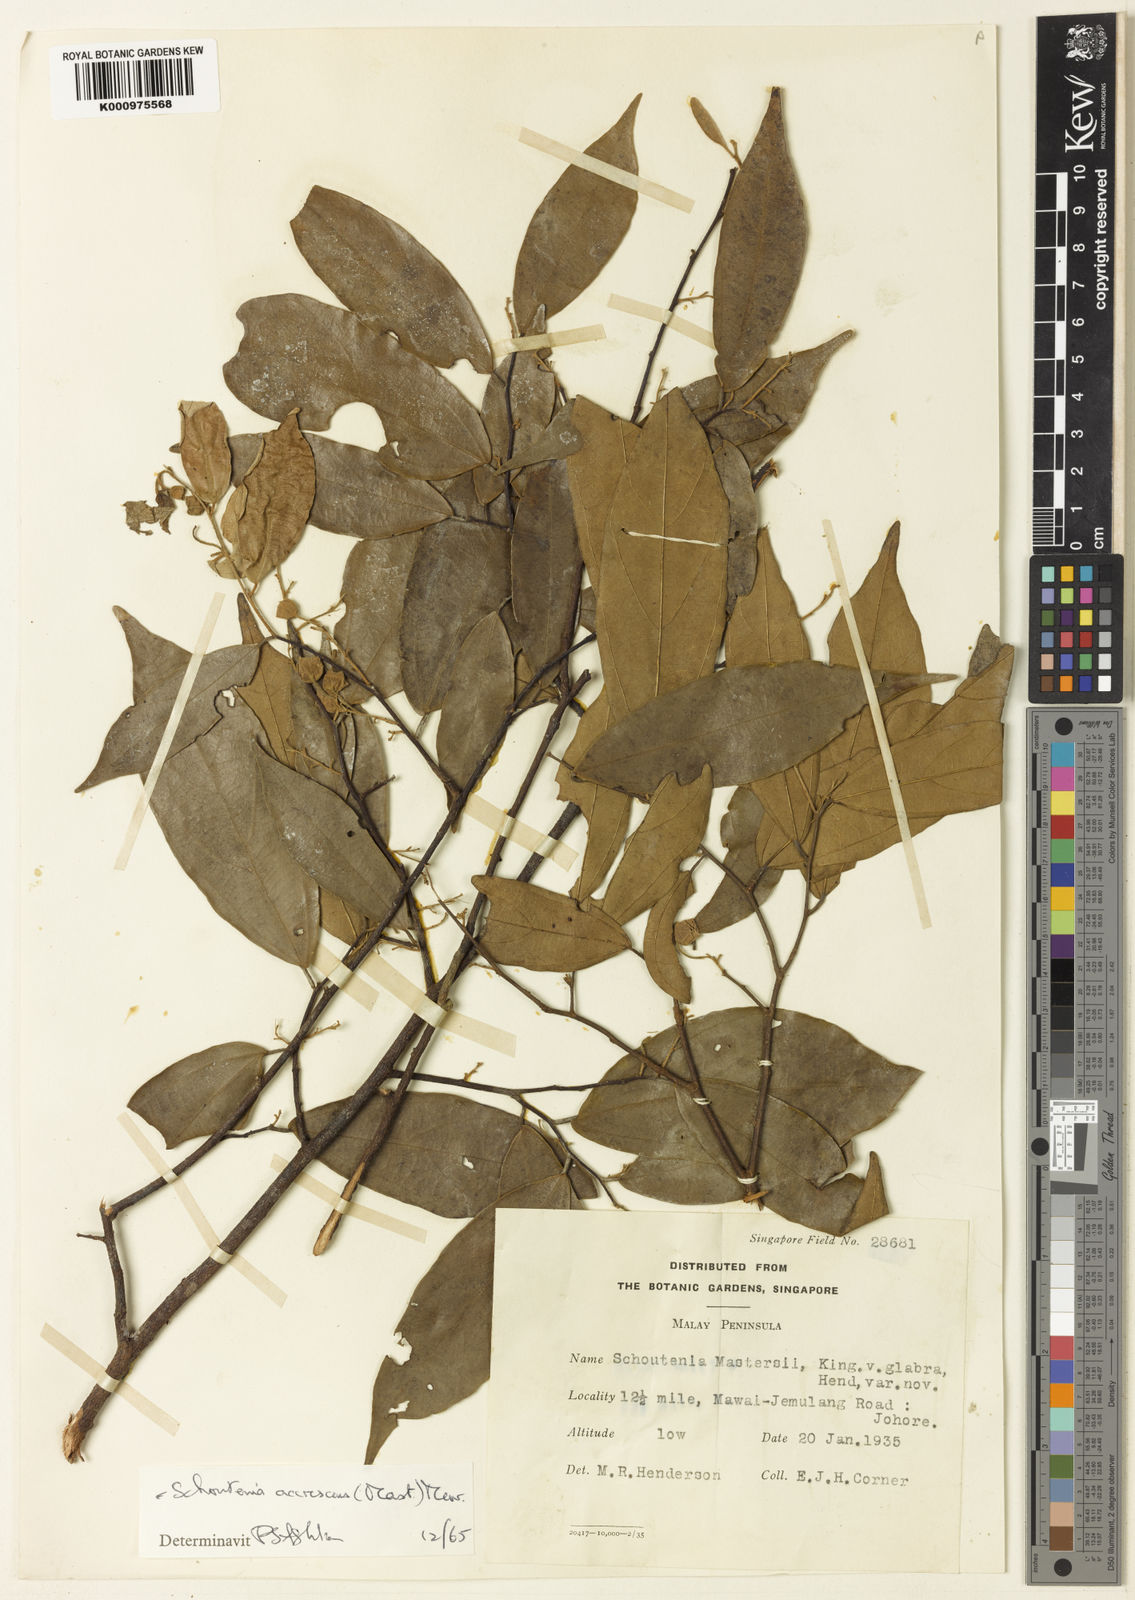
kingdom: Plantae
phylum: Tracheophyta
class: Magnoliopsida
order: Malvales
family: Malvaceae
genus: Schoutenia
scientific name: Schoutenia
